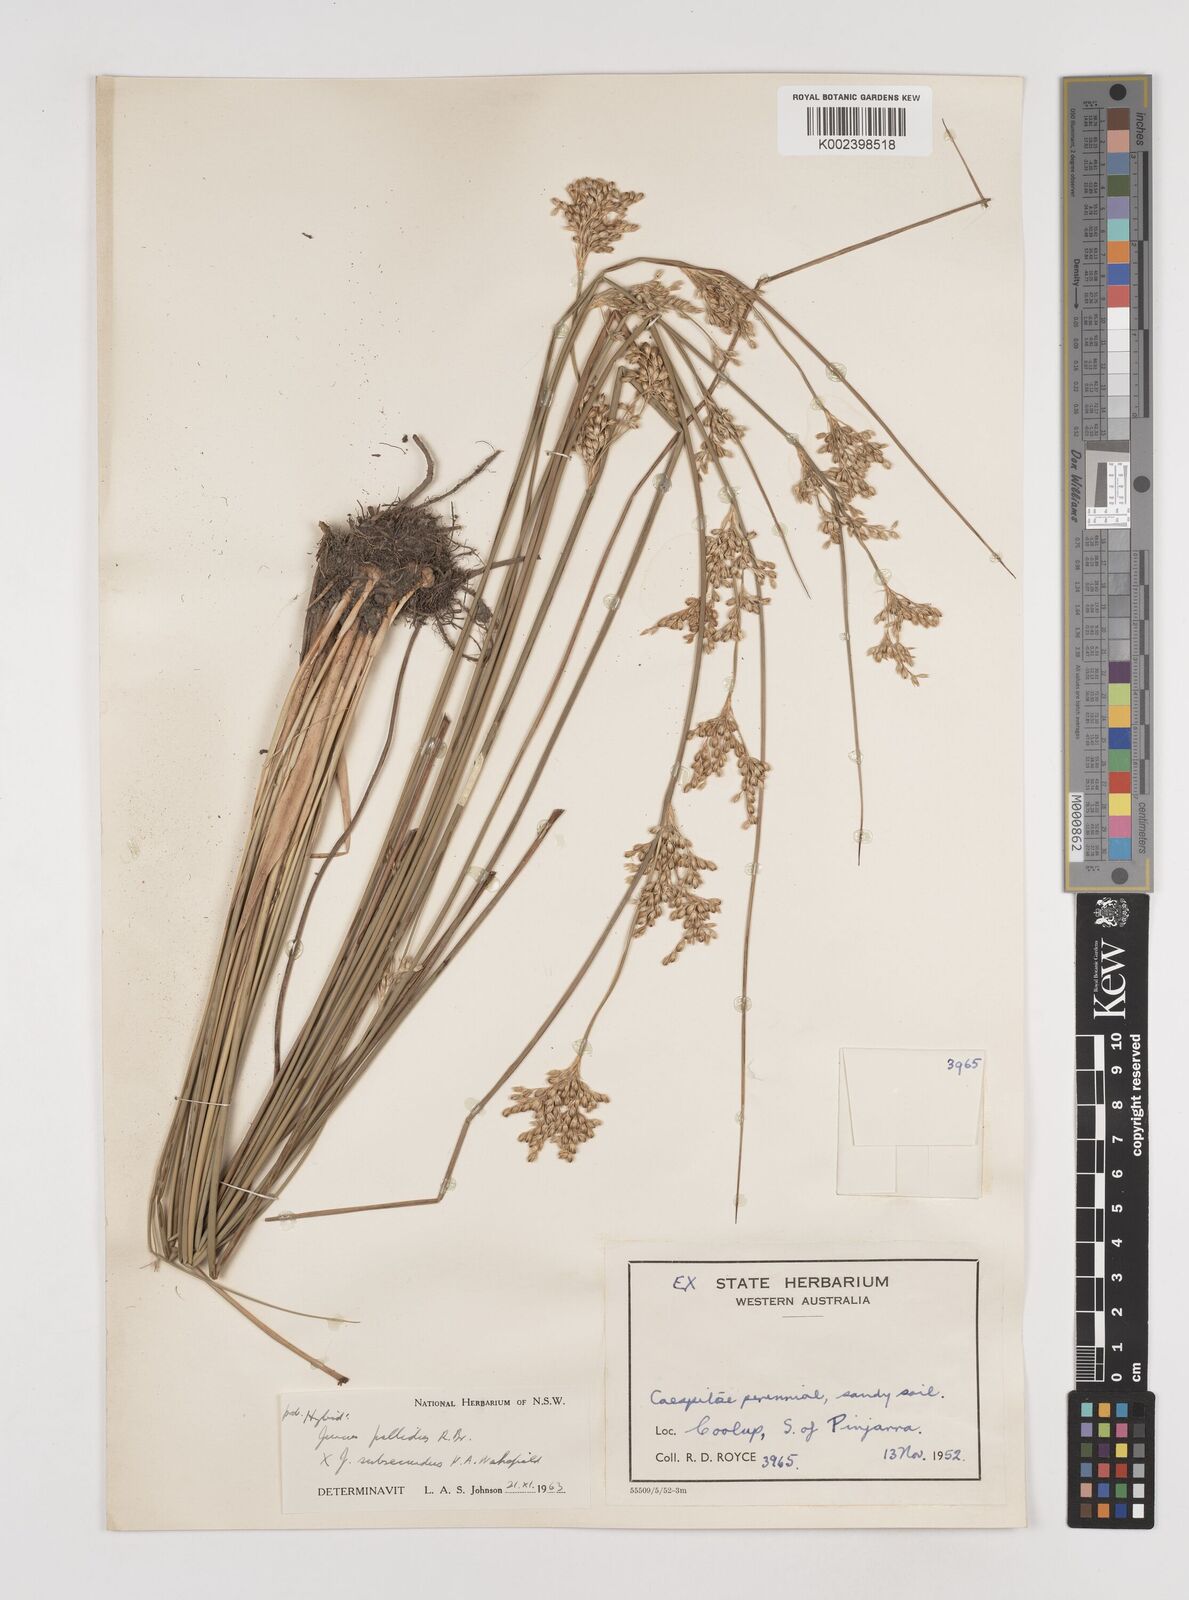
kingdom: Plantae
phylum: Tracheophyta
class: Liliopsida
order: Poales
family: Juncaceae
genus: Juncus
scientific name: Juncus pallidus
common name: Great soft-rush
